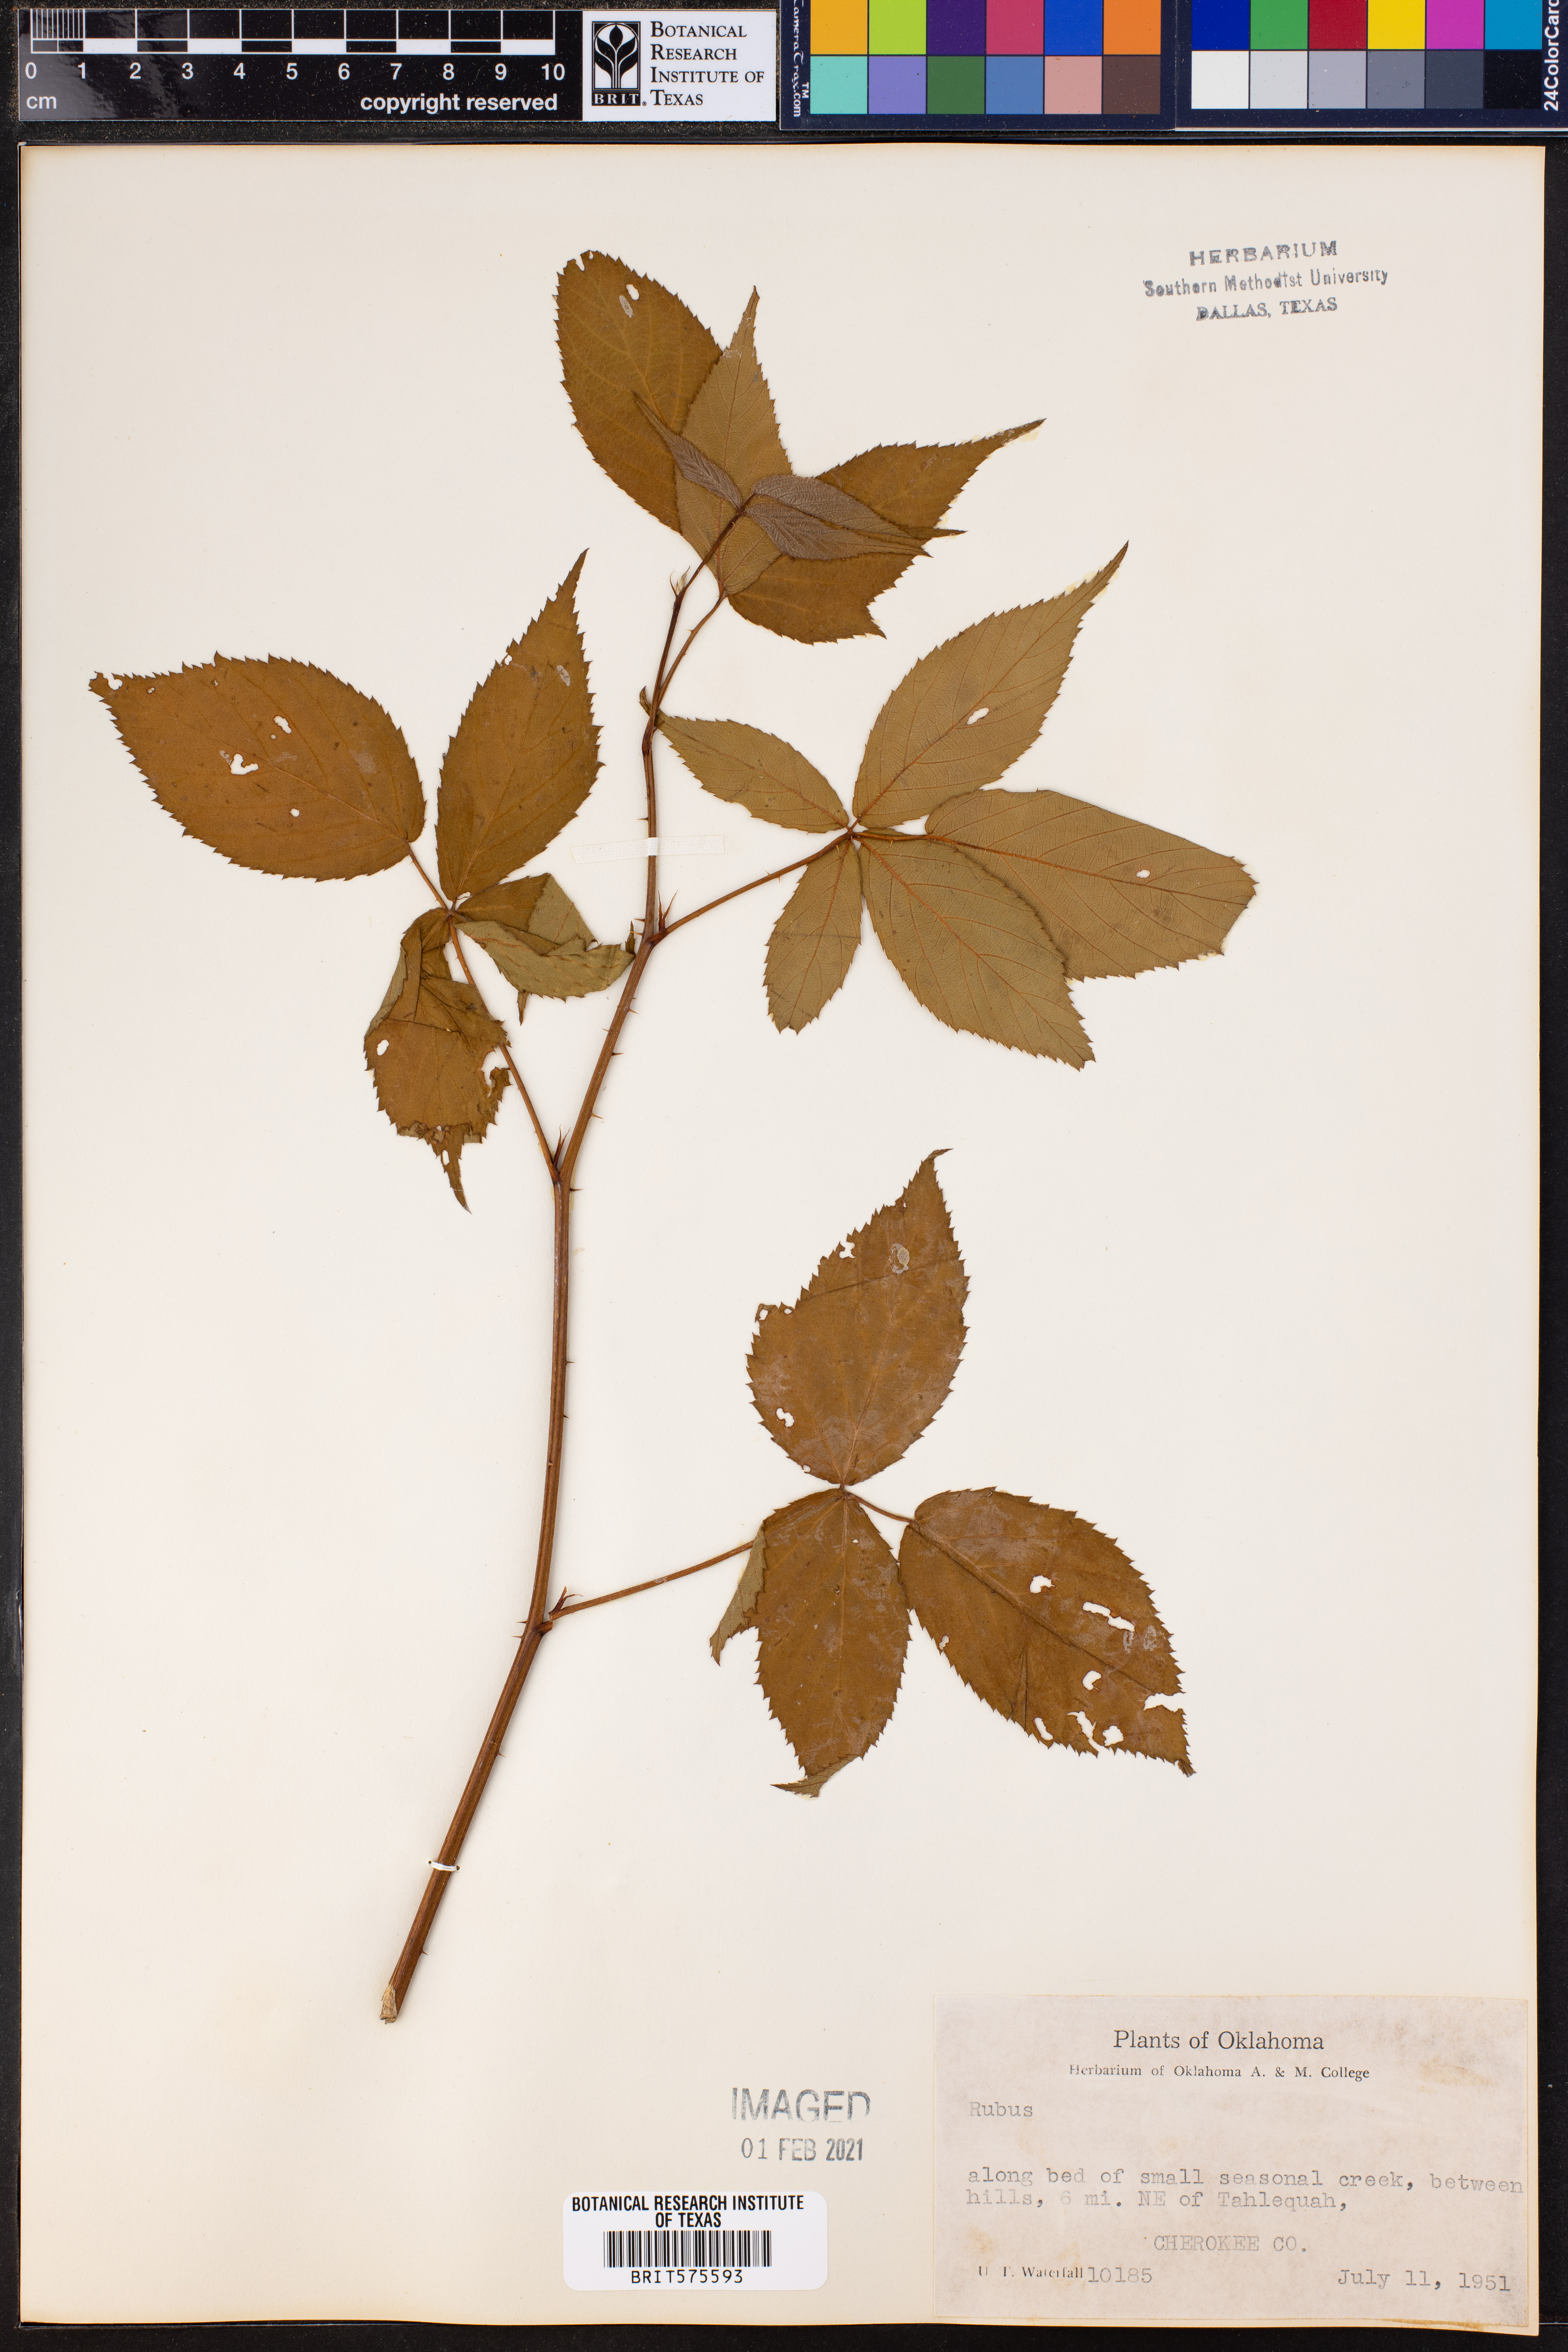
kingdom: Plantae
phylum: Tracheophyta
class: Magnoliopsida
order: Rosales
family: Rosaceae
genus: Rubus
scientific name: Rubus
